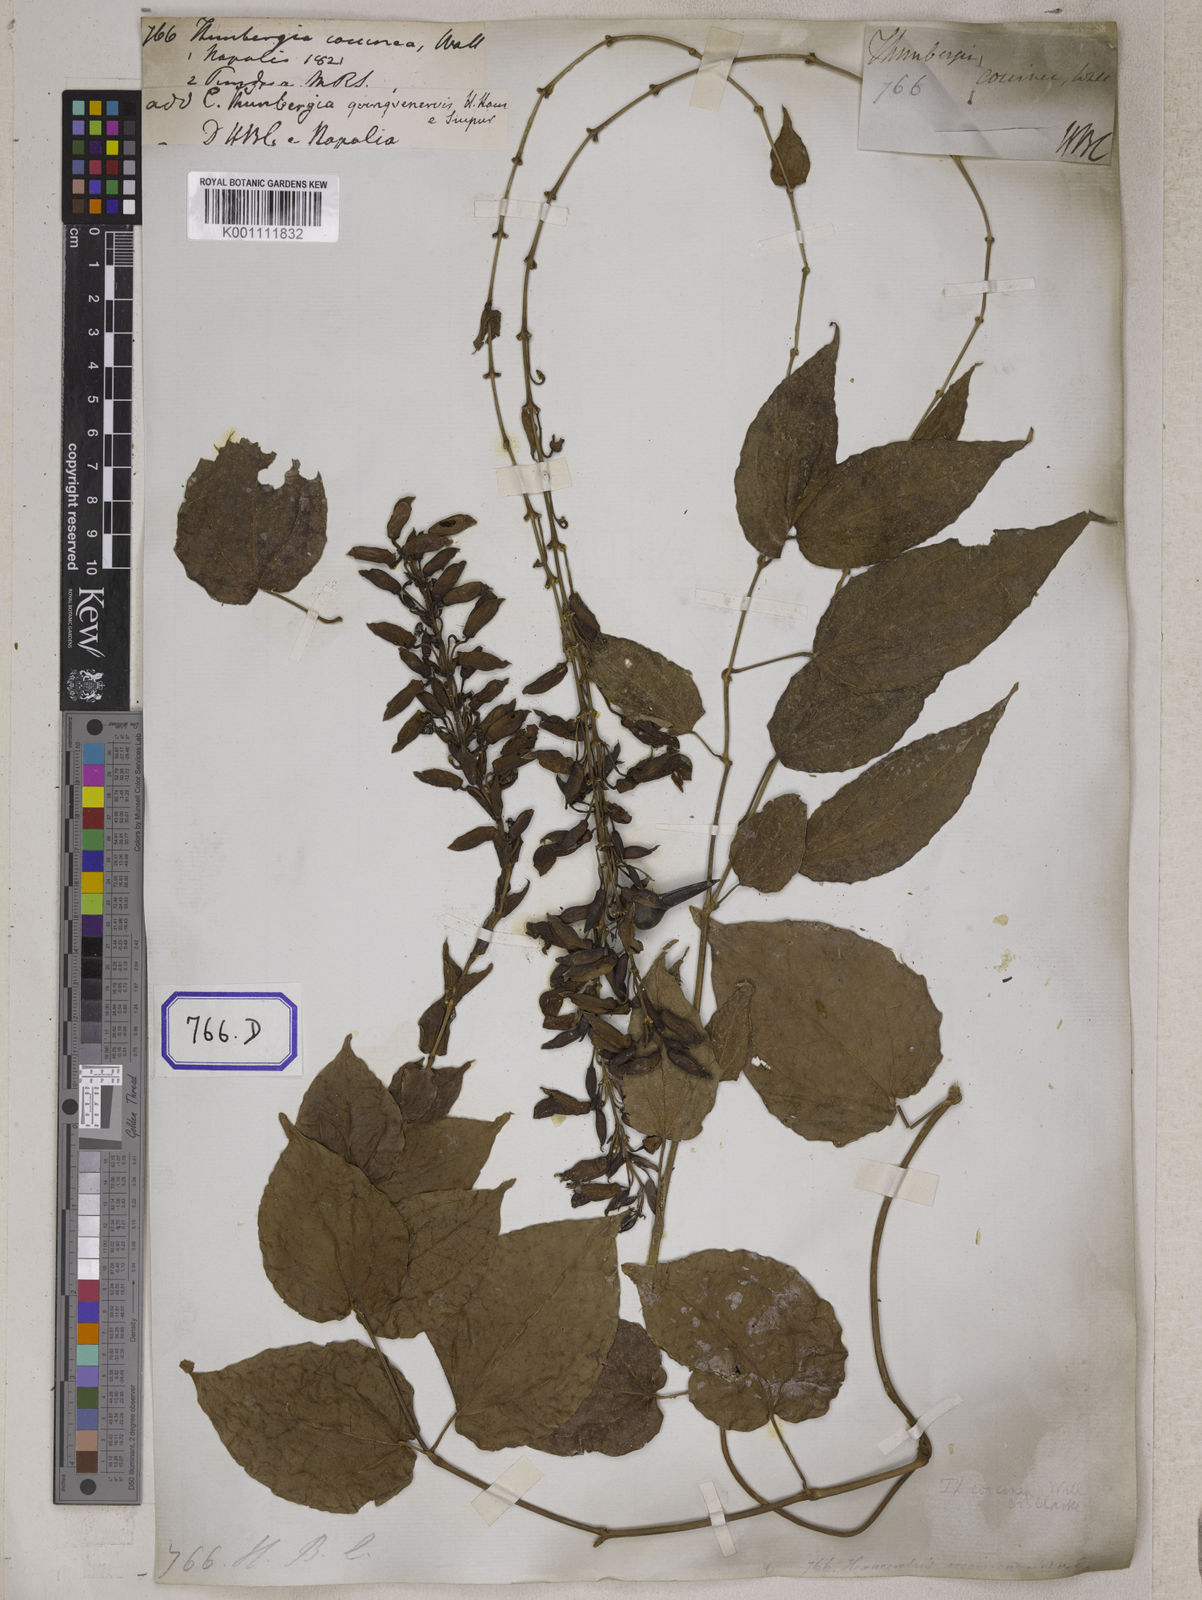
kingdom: Plantae
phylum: Tracheophyta
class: Magnoliopsida
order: Lamiales
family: Acanthaceae
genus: Thunbergia
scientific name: Thunbergia
